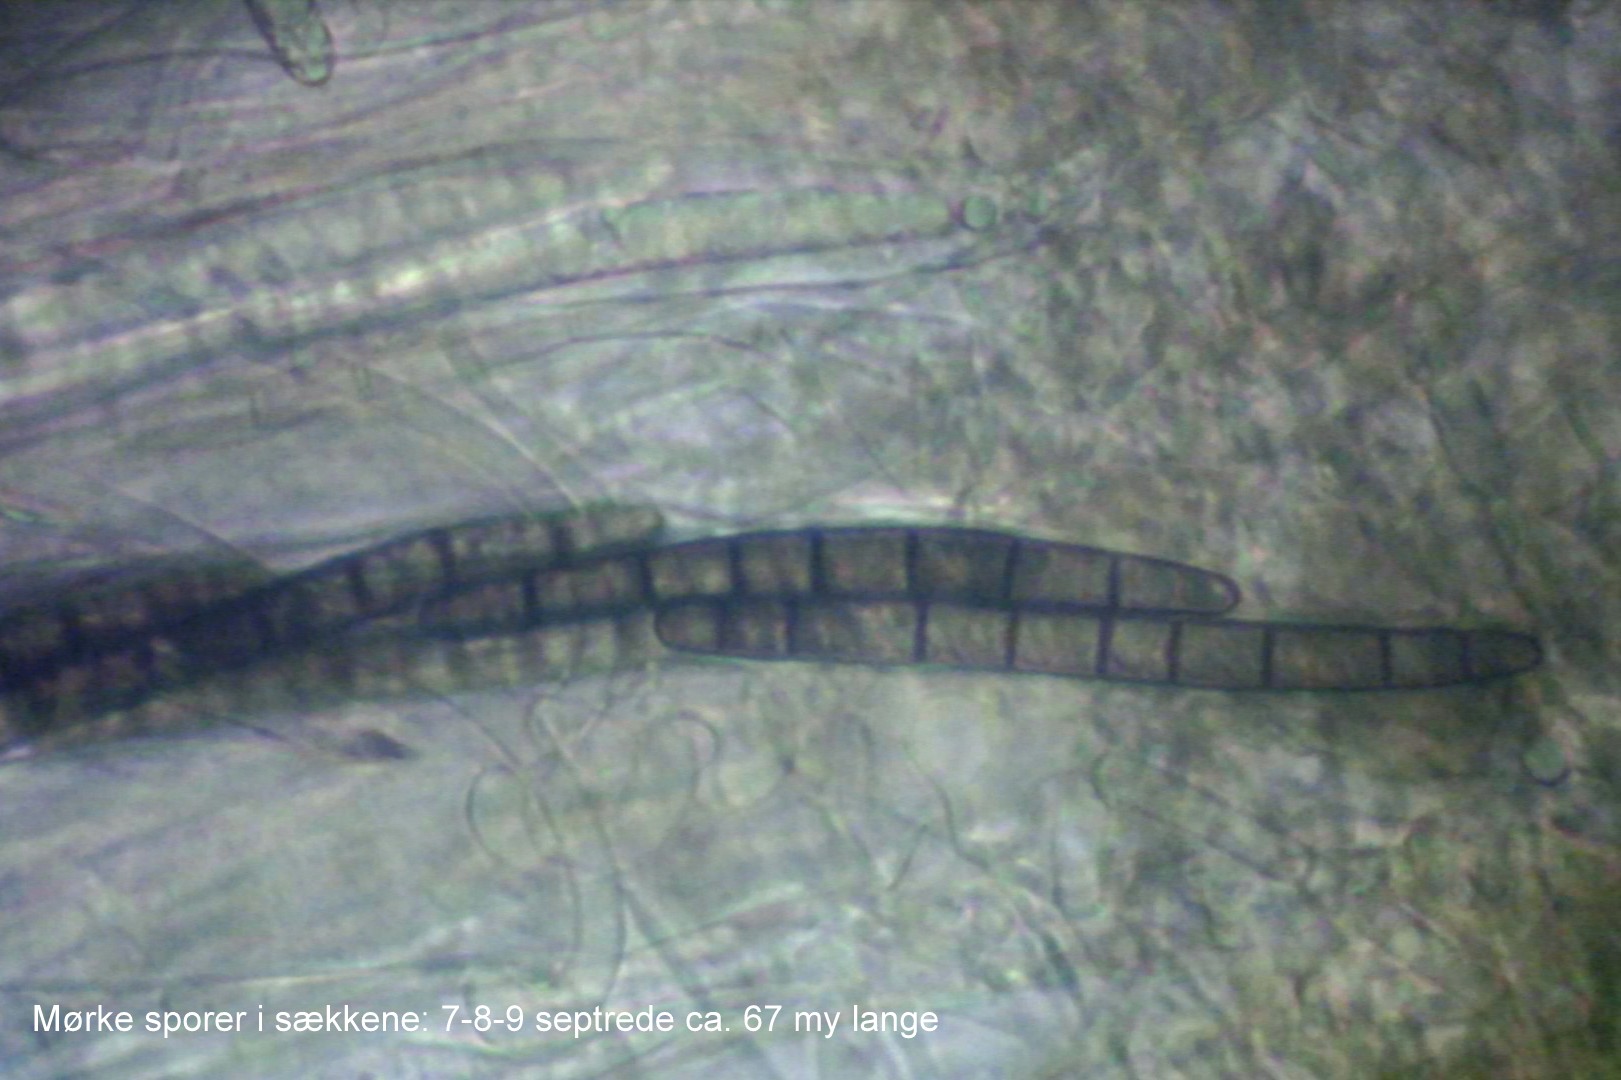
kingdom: Fungi
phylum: Ascomycota
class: Geoglossomycetes
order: Geoglossales
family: Geoglossaceae
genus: Hemileucoglossum
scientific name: Hemileucoglossum elongatum
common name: småsporet jordtunge
